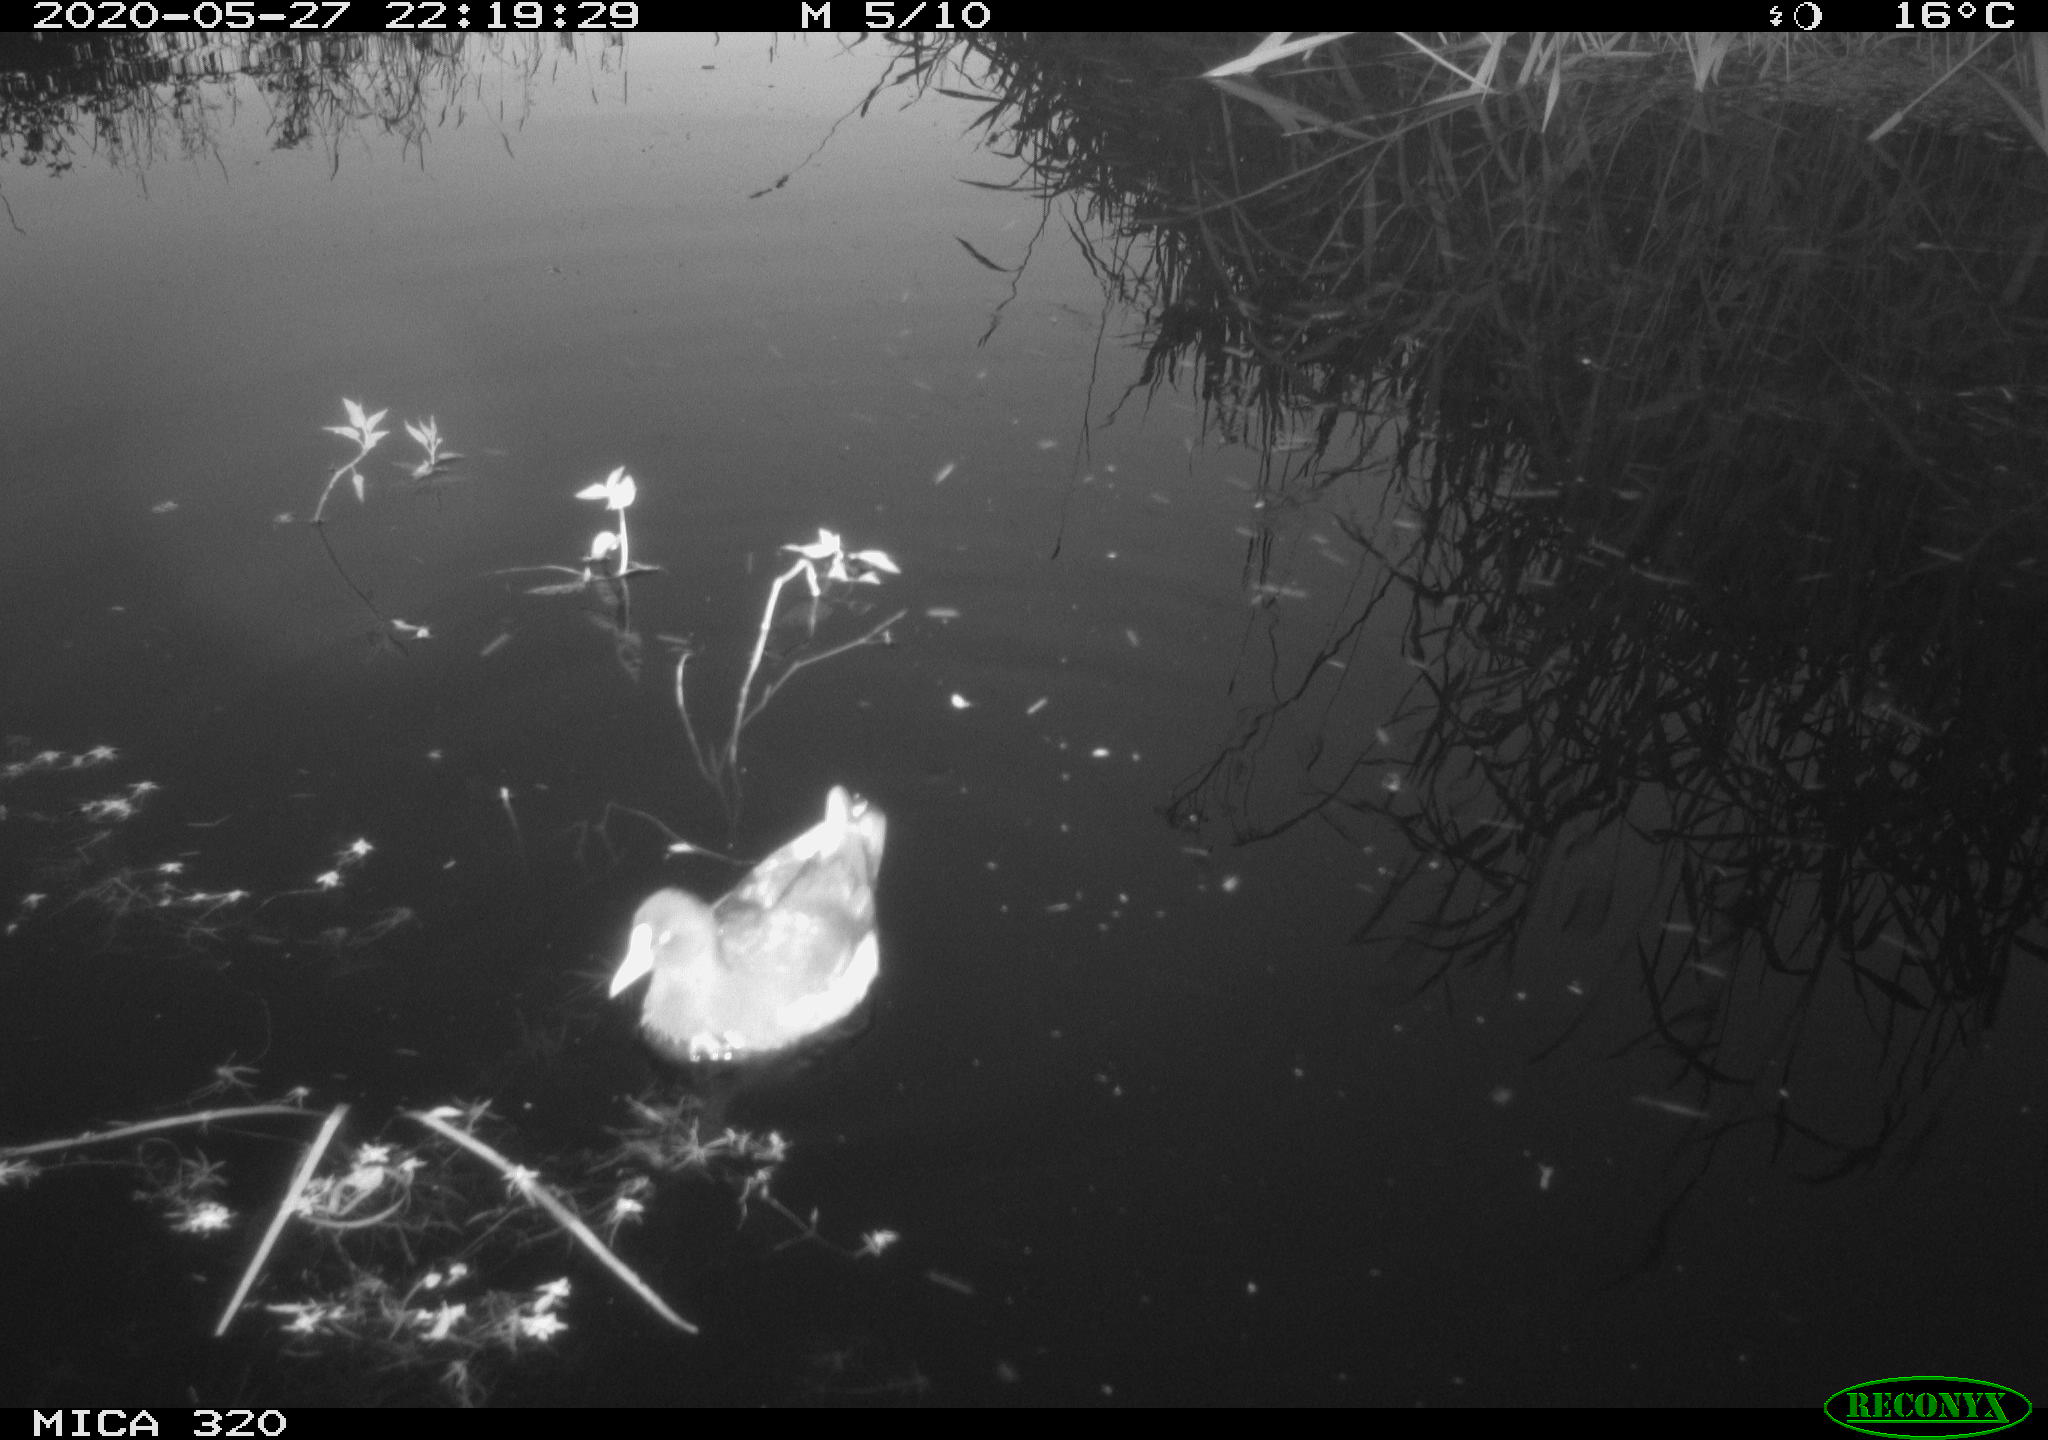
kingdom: Animalia
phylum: Chordata
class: Aves
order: Gruiformes
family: Rallidae
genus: Gallinula
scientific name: Gallinula chloropus
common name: Common moorhen
